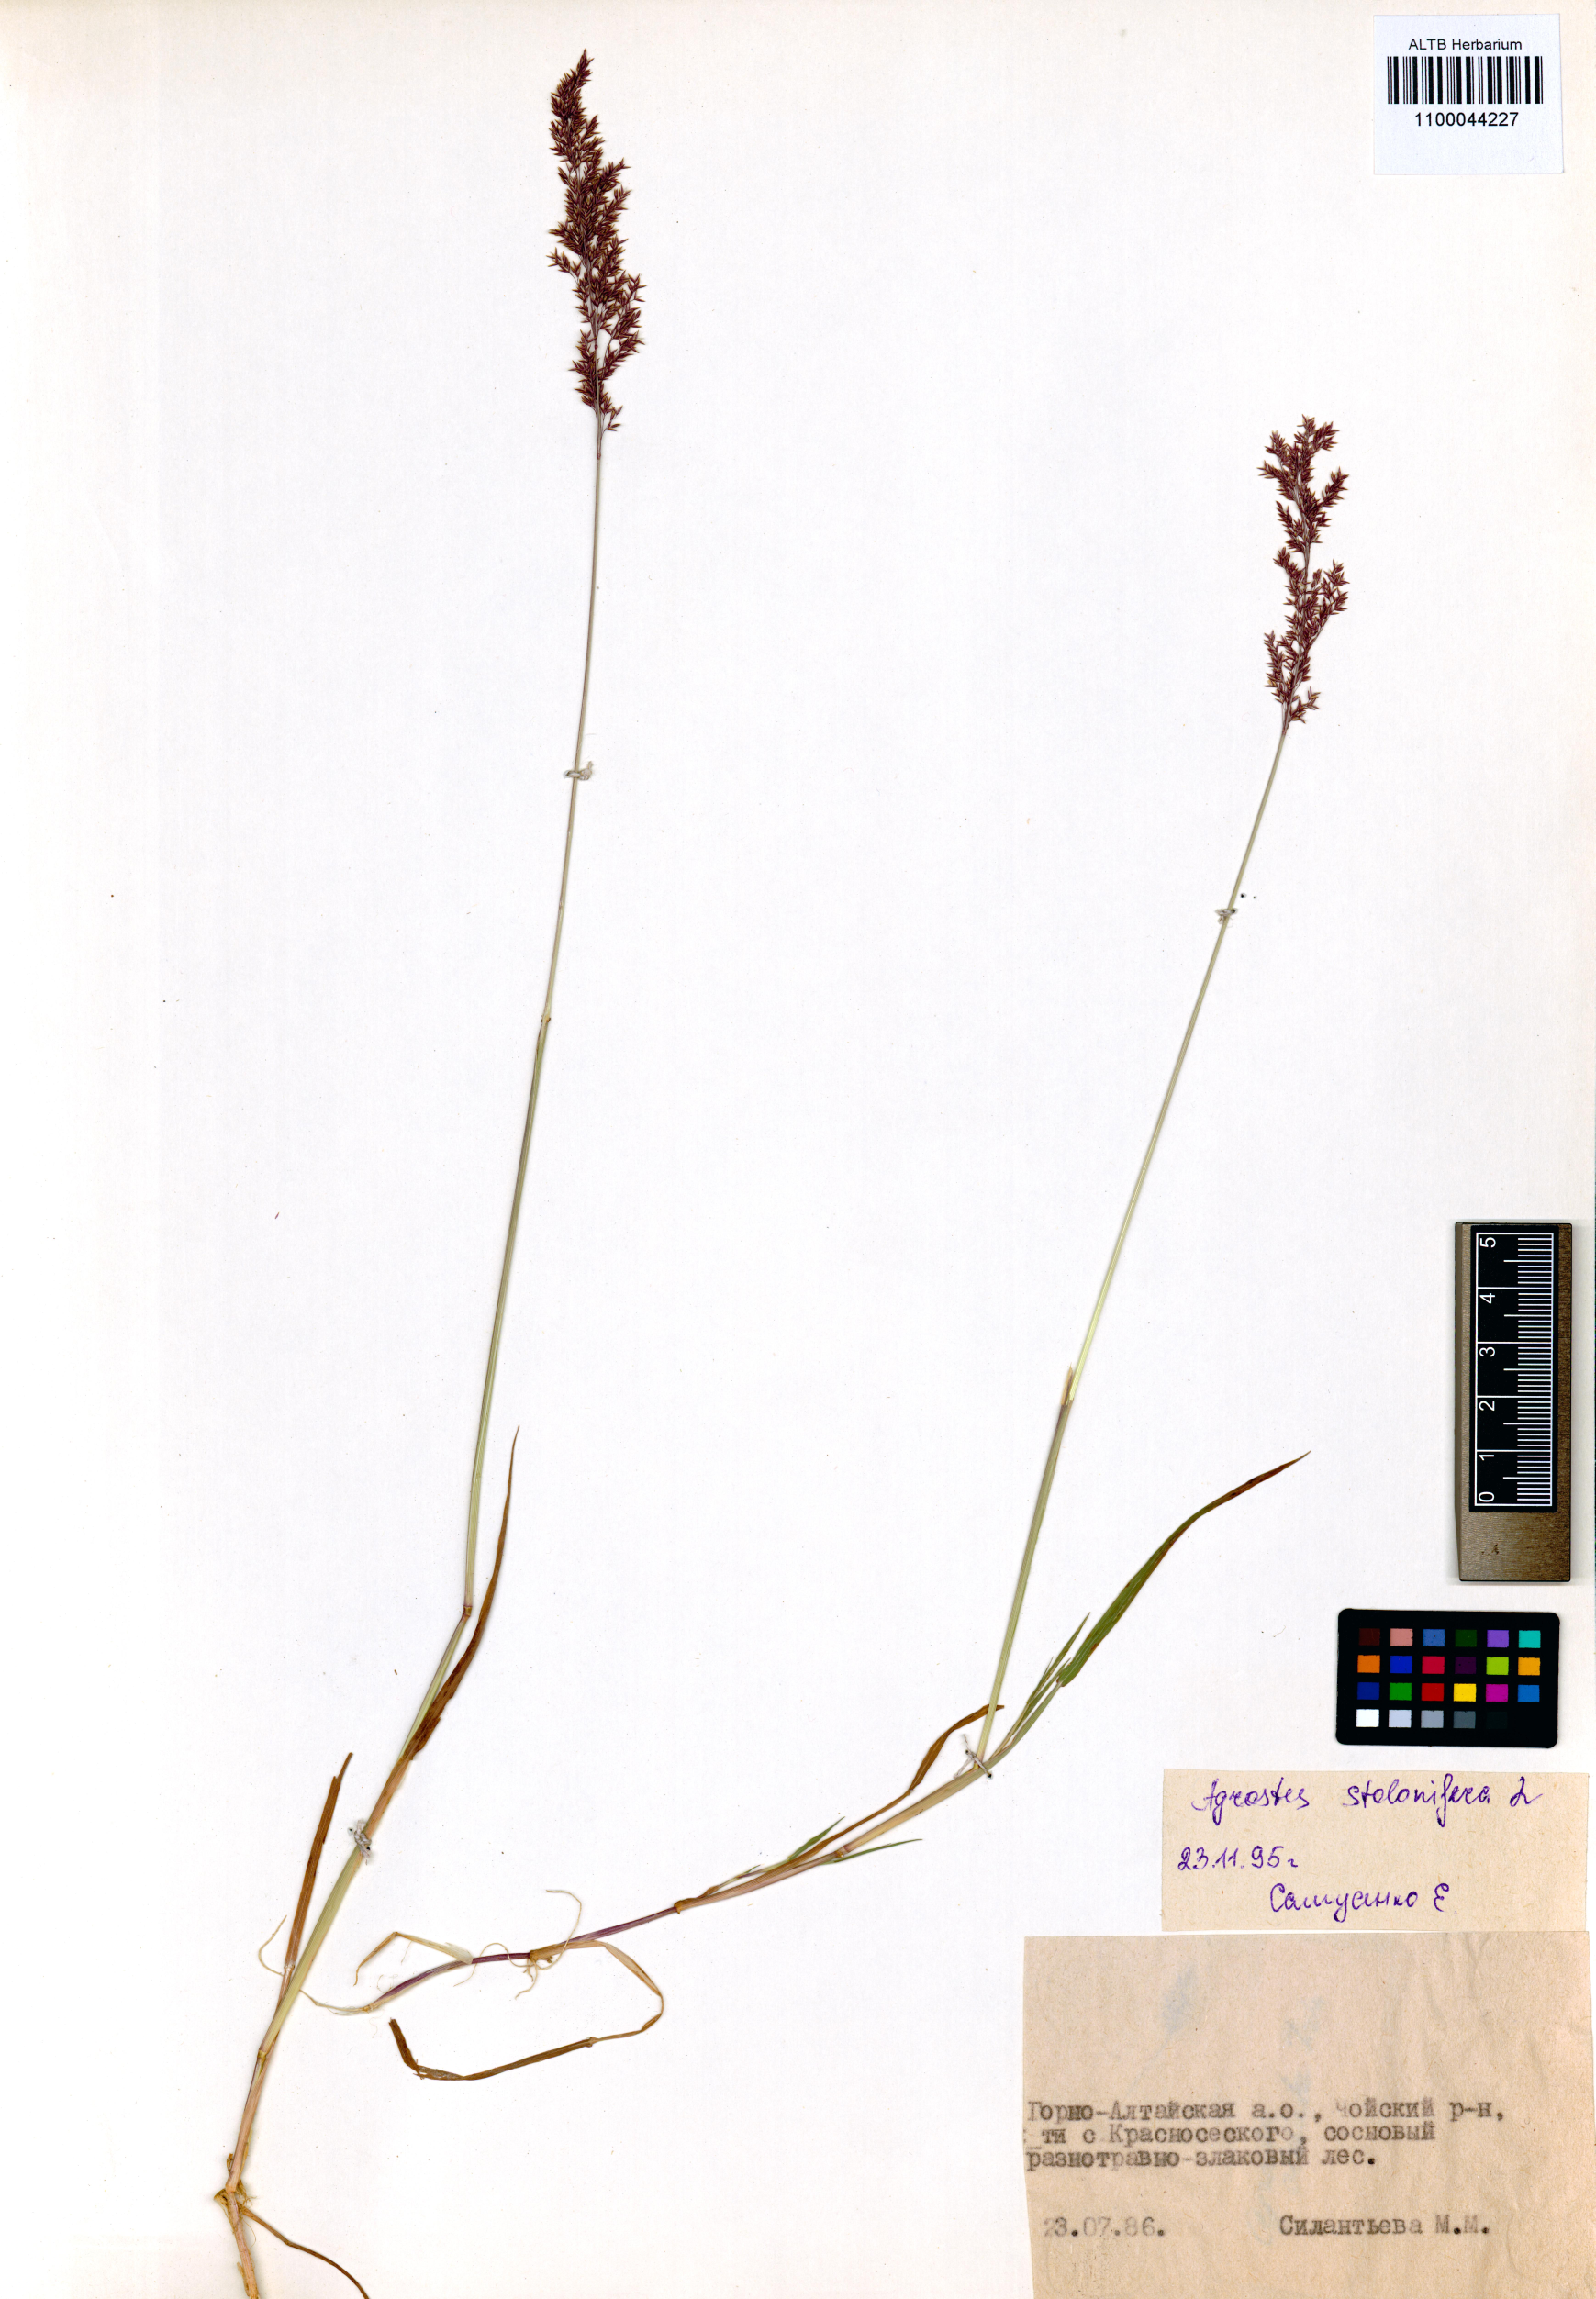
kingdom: Plantae
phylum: Tracheophyta
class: Liliopsida
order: Poales
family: Poaceae
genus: Agrostis
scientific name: Agrostis stolonifera
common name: Creeping bentgrass
